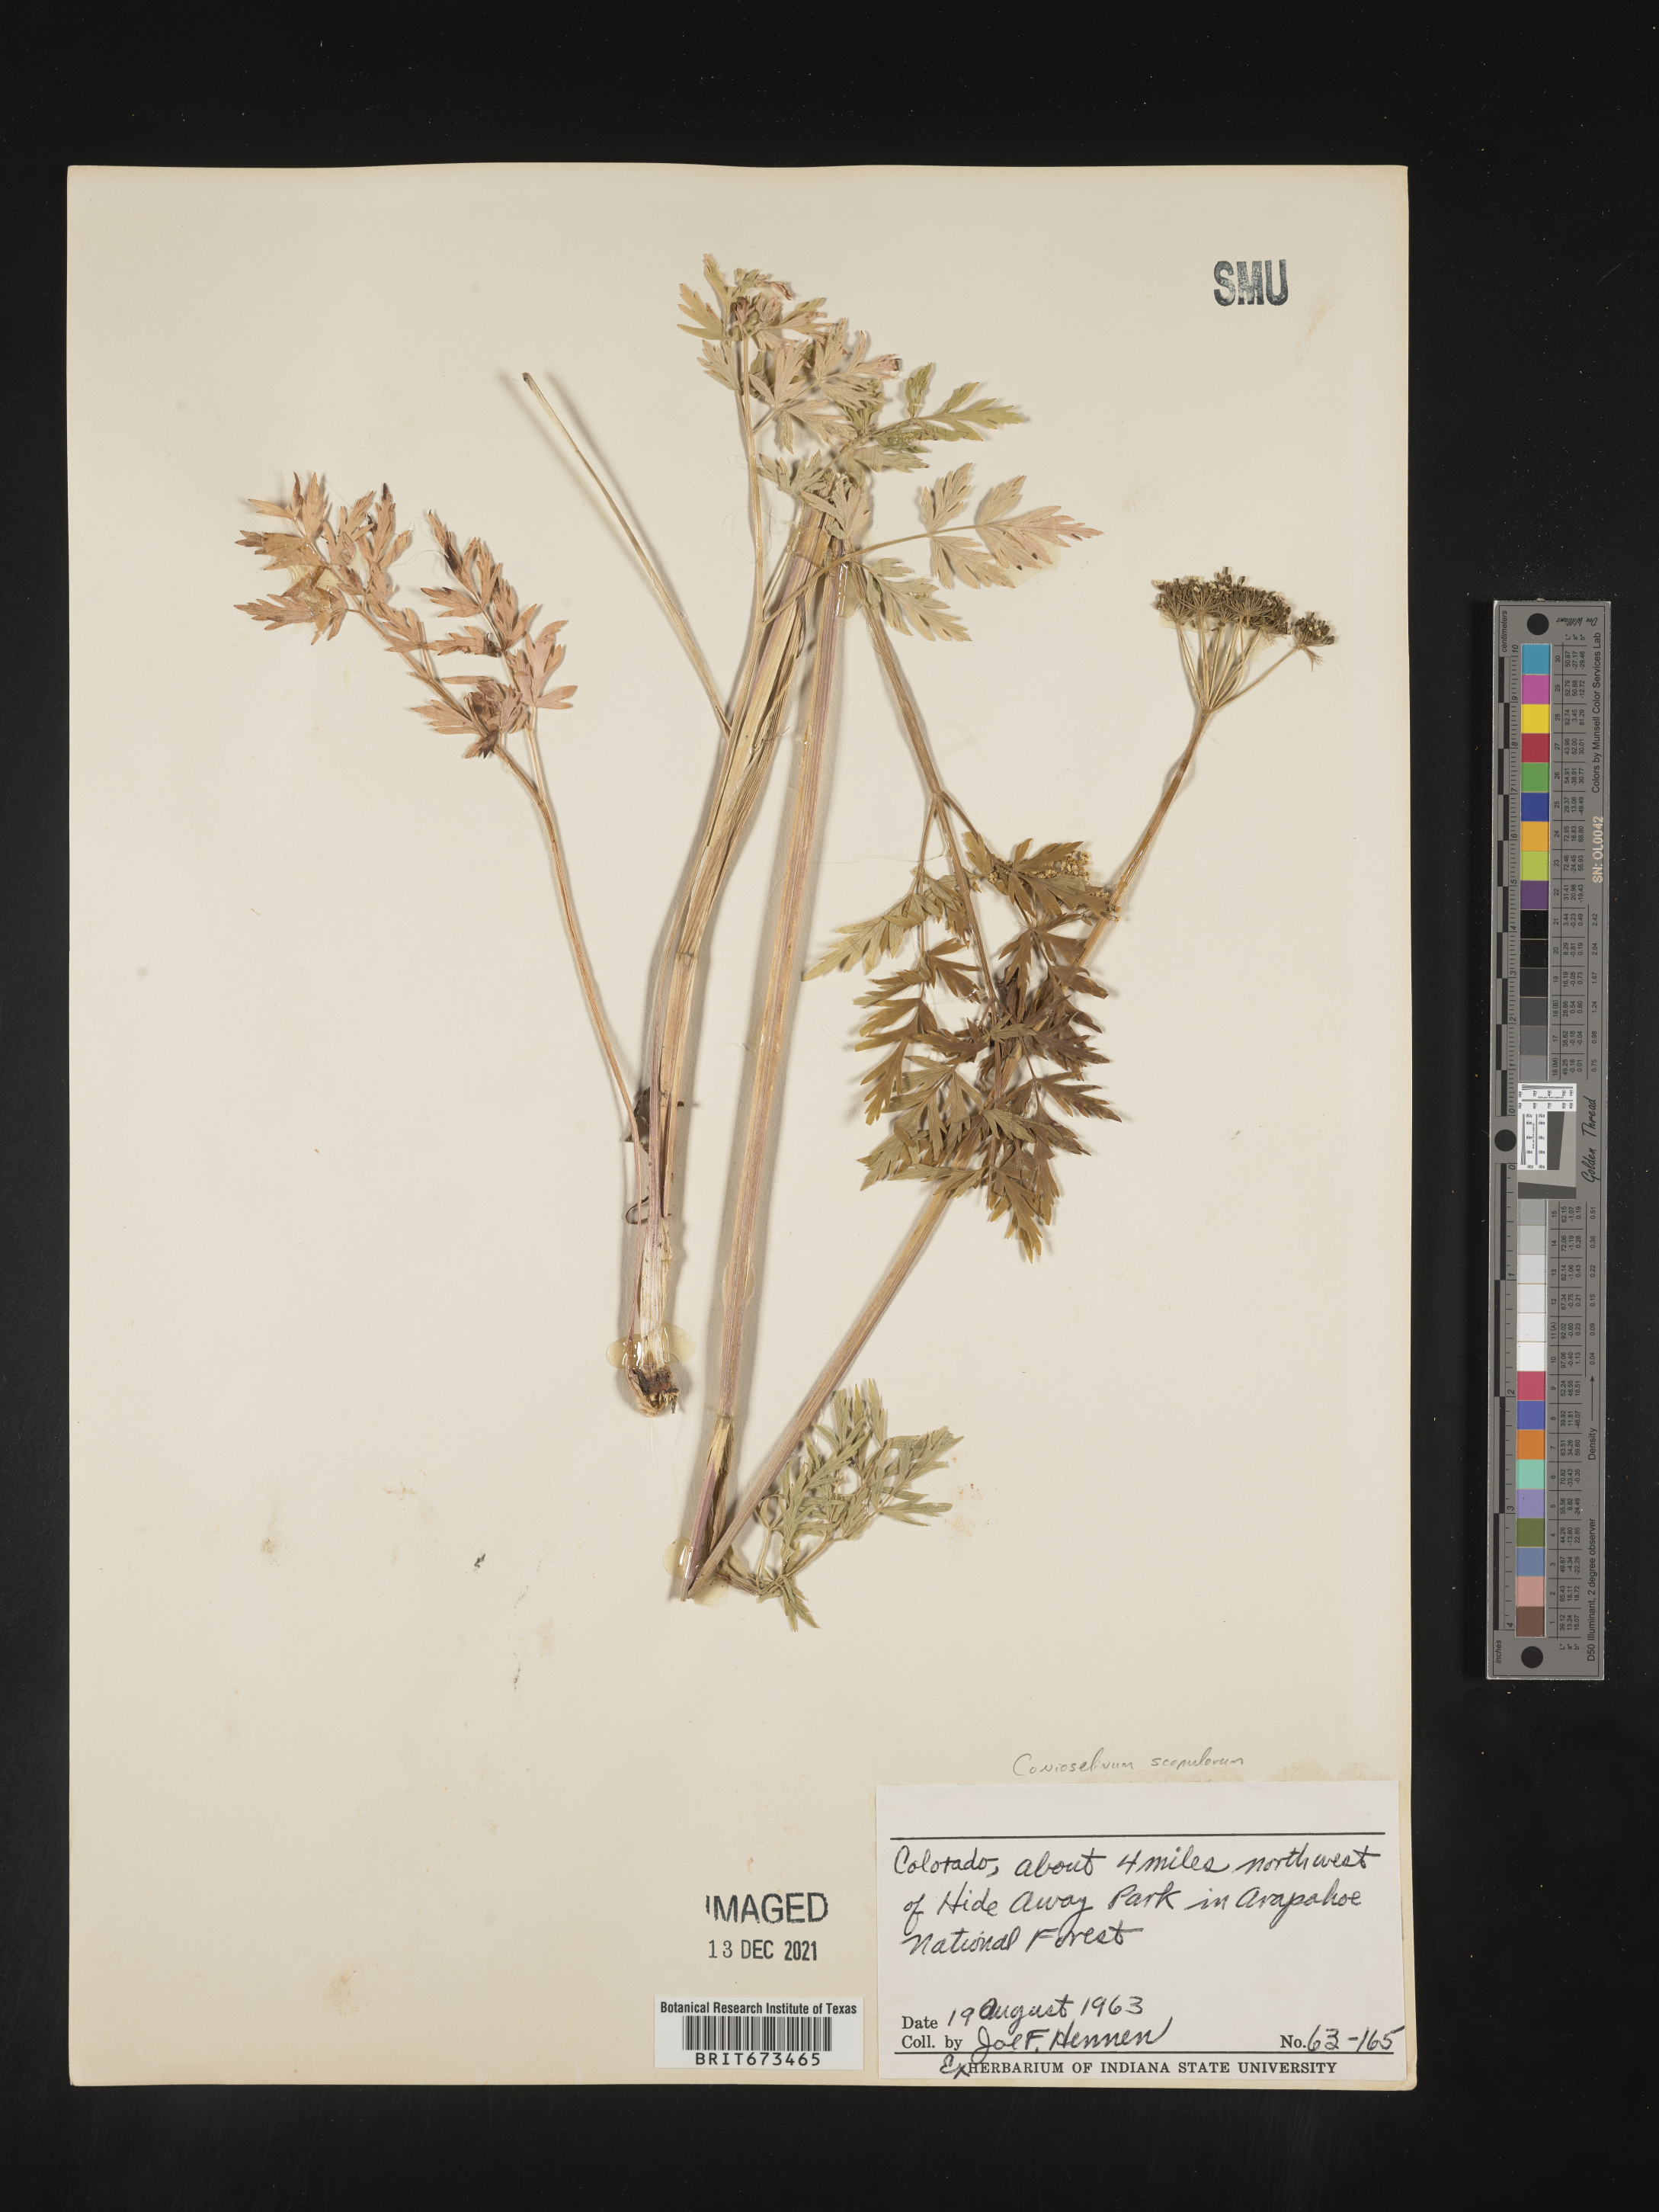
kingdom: Plantae
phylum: Tracheophyta
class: Magnoliopsida
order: Apiales
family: Apiaceae
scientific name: Apiaceae
